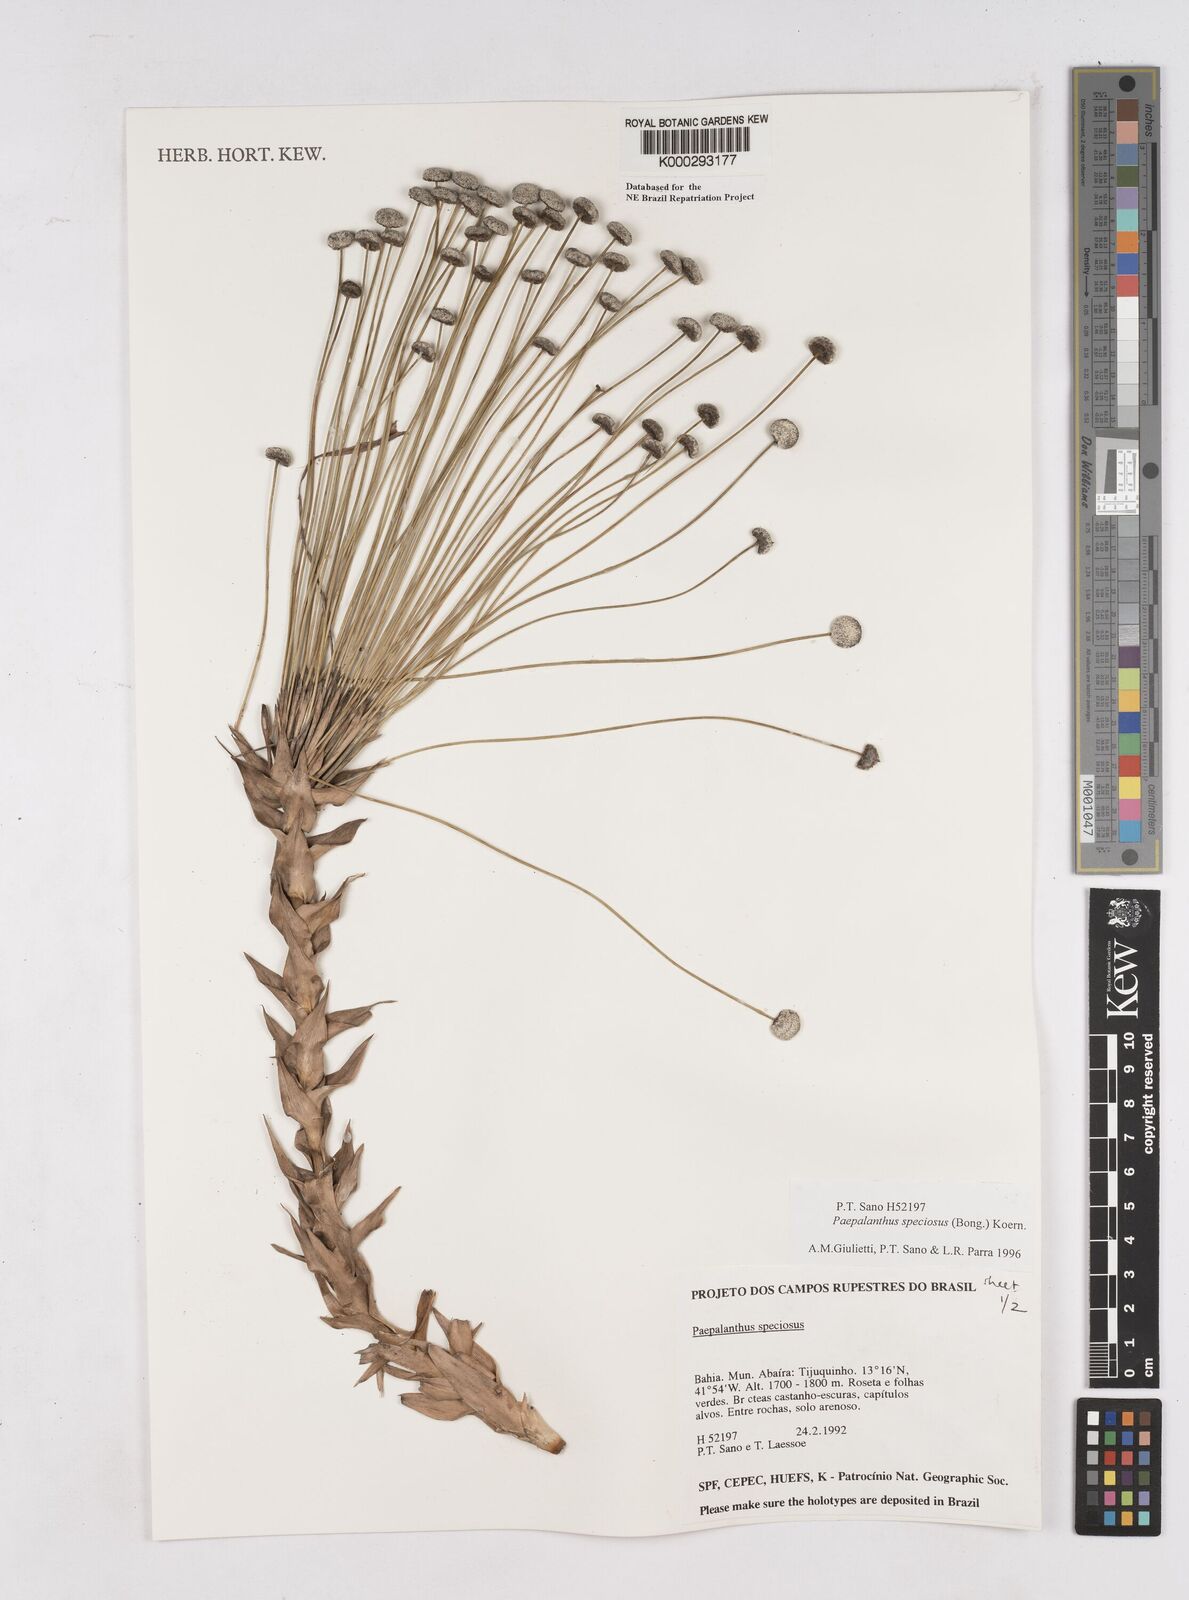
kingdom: Plantae
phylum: Tracheophyta
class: Liliopsida
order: Poales
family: Eriocaulaceae
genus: Paepalanthus
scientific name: Paepalanthus
